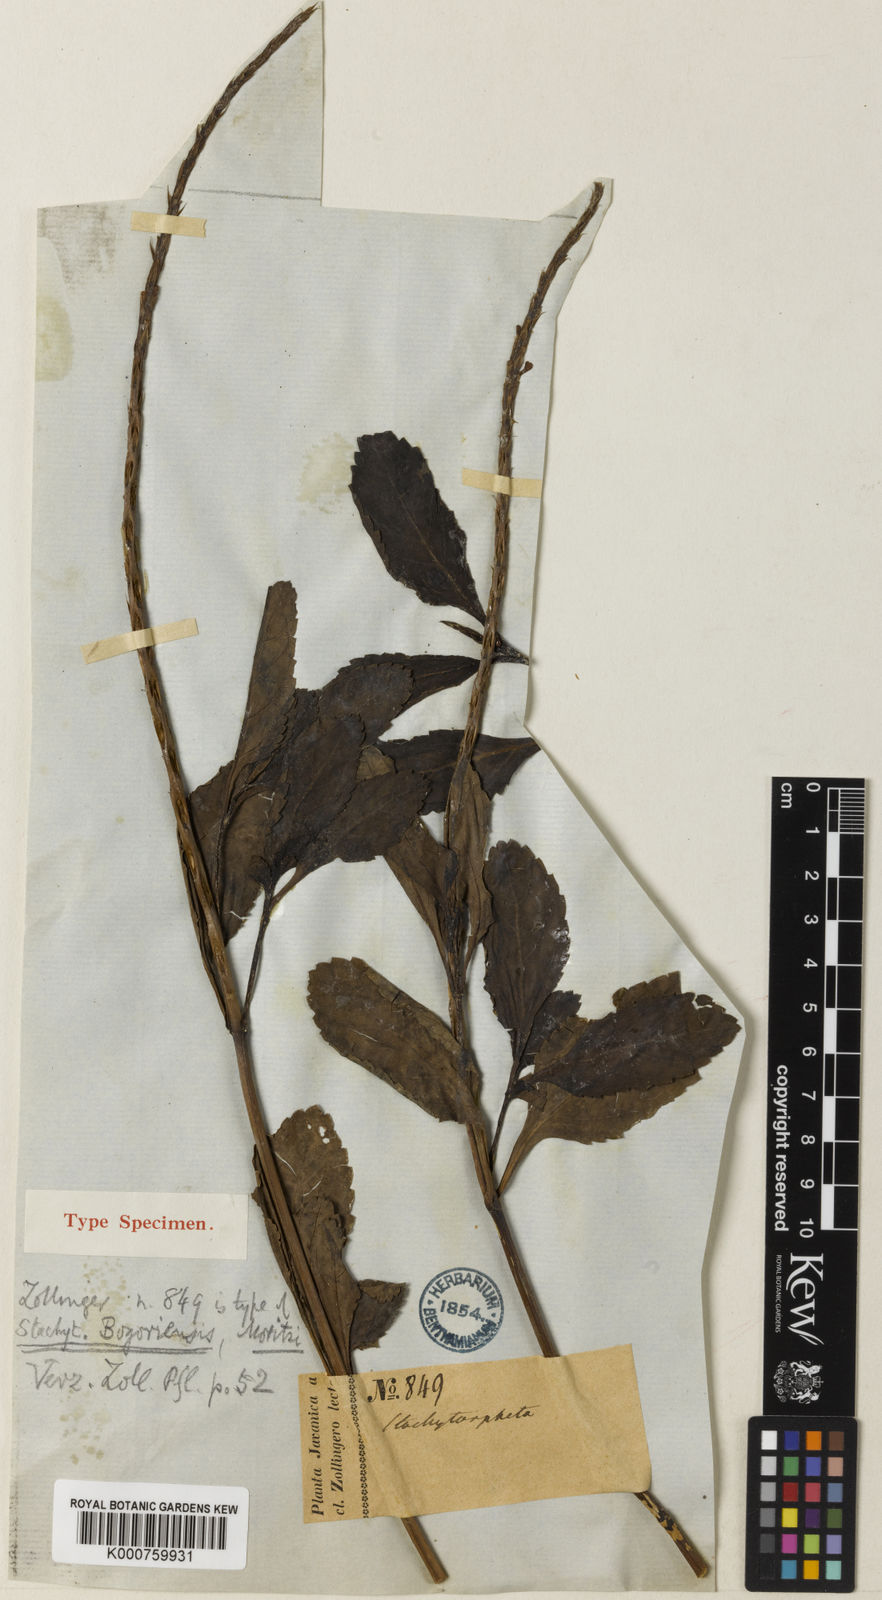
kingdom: Plantae
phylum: Tracheophyta
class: Magnoliopsida
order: Lamiales
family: Verbenaceae
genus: Stachytarpheta
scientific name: Stachytarpheta jamaicensis
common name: Light-blue snakeweed
